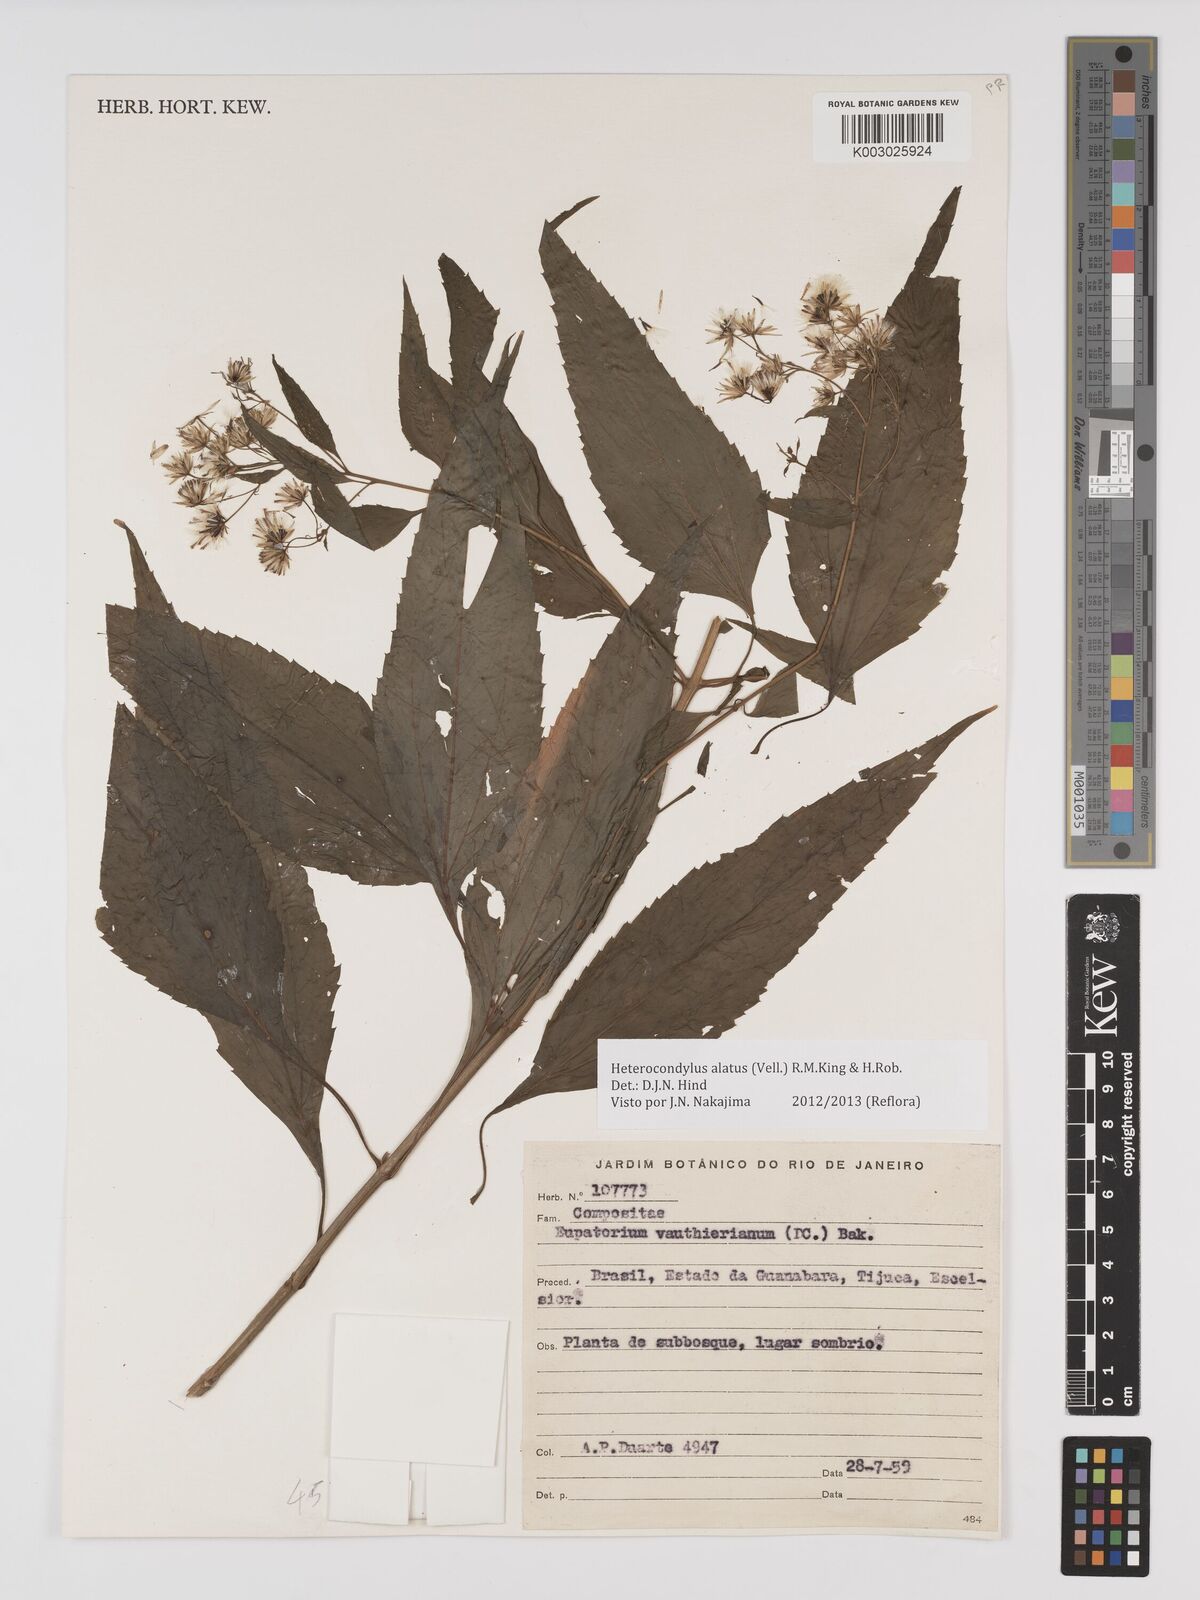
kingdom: Plantae
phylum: Tracheophyta
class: Magnoliopsida
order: Asterales
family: Asteraceae
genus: Heterocondylus
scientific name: Heterocondylus alatus
